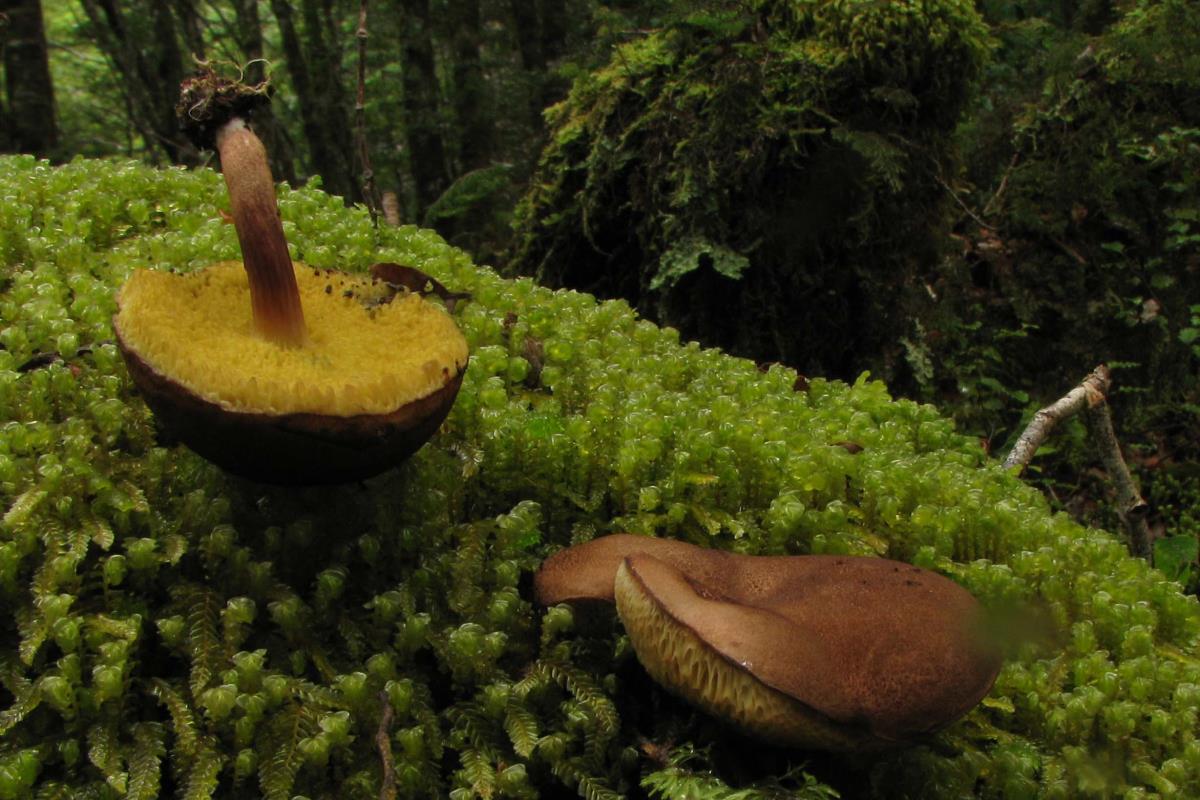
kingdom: Fungi
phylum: Basidiomycota
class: Agaricomycetes
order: Boletales
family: Boletaceae
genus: Xerocomus
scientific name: Xerocomus lentistipitatus
